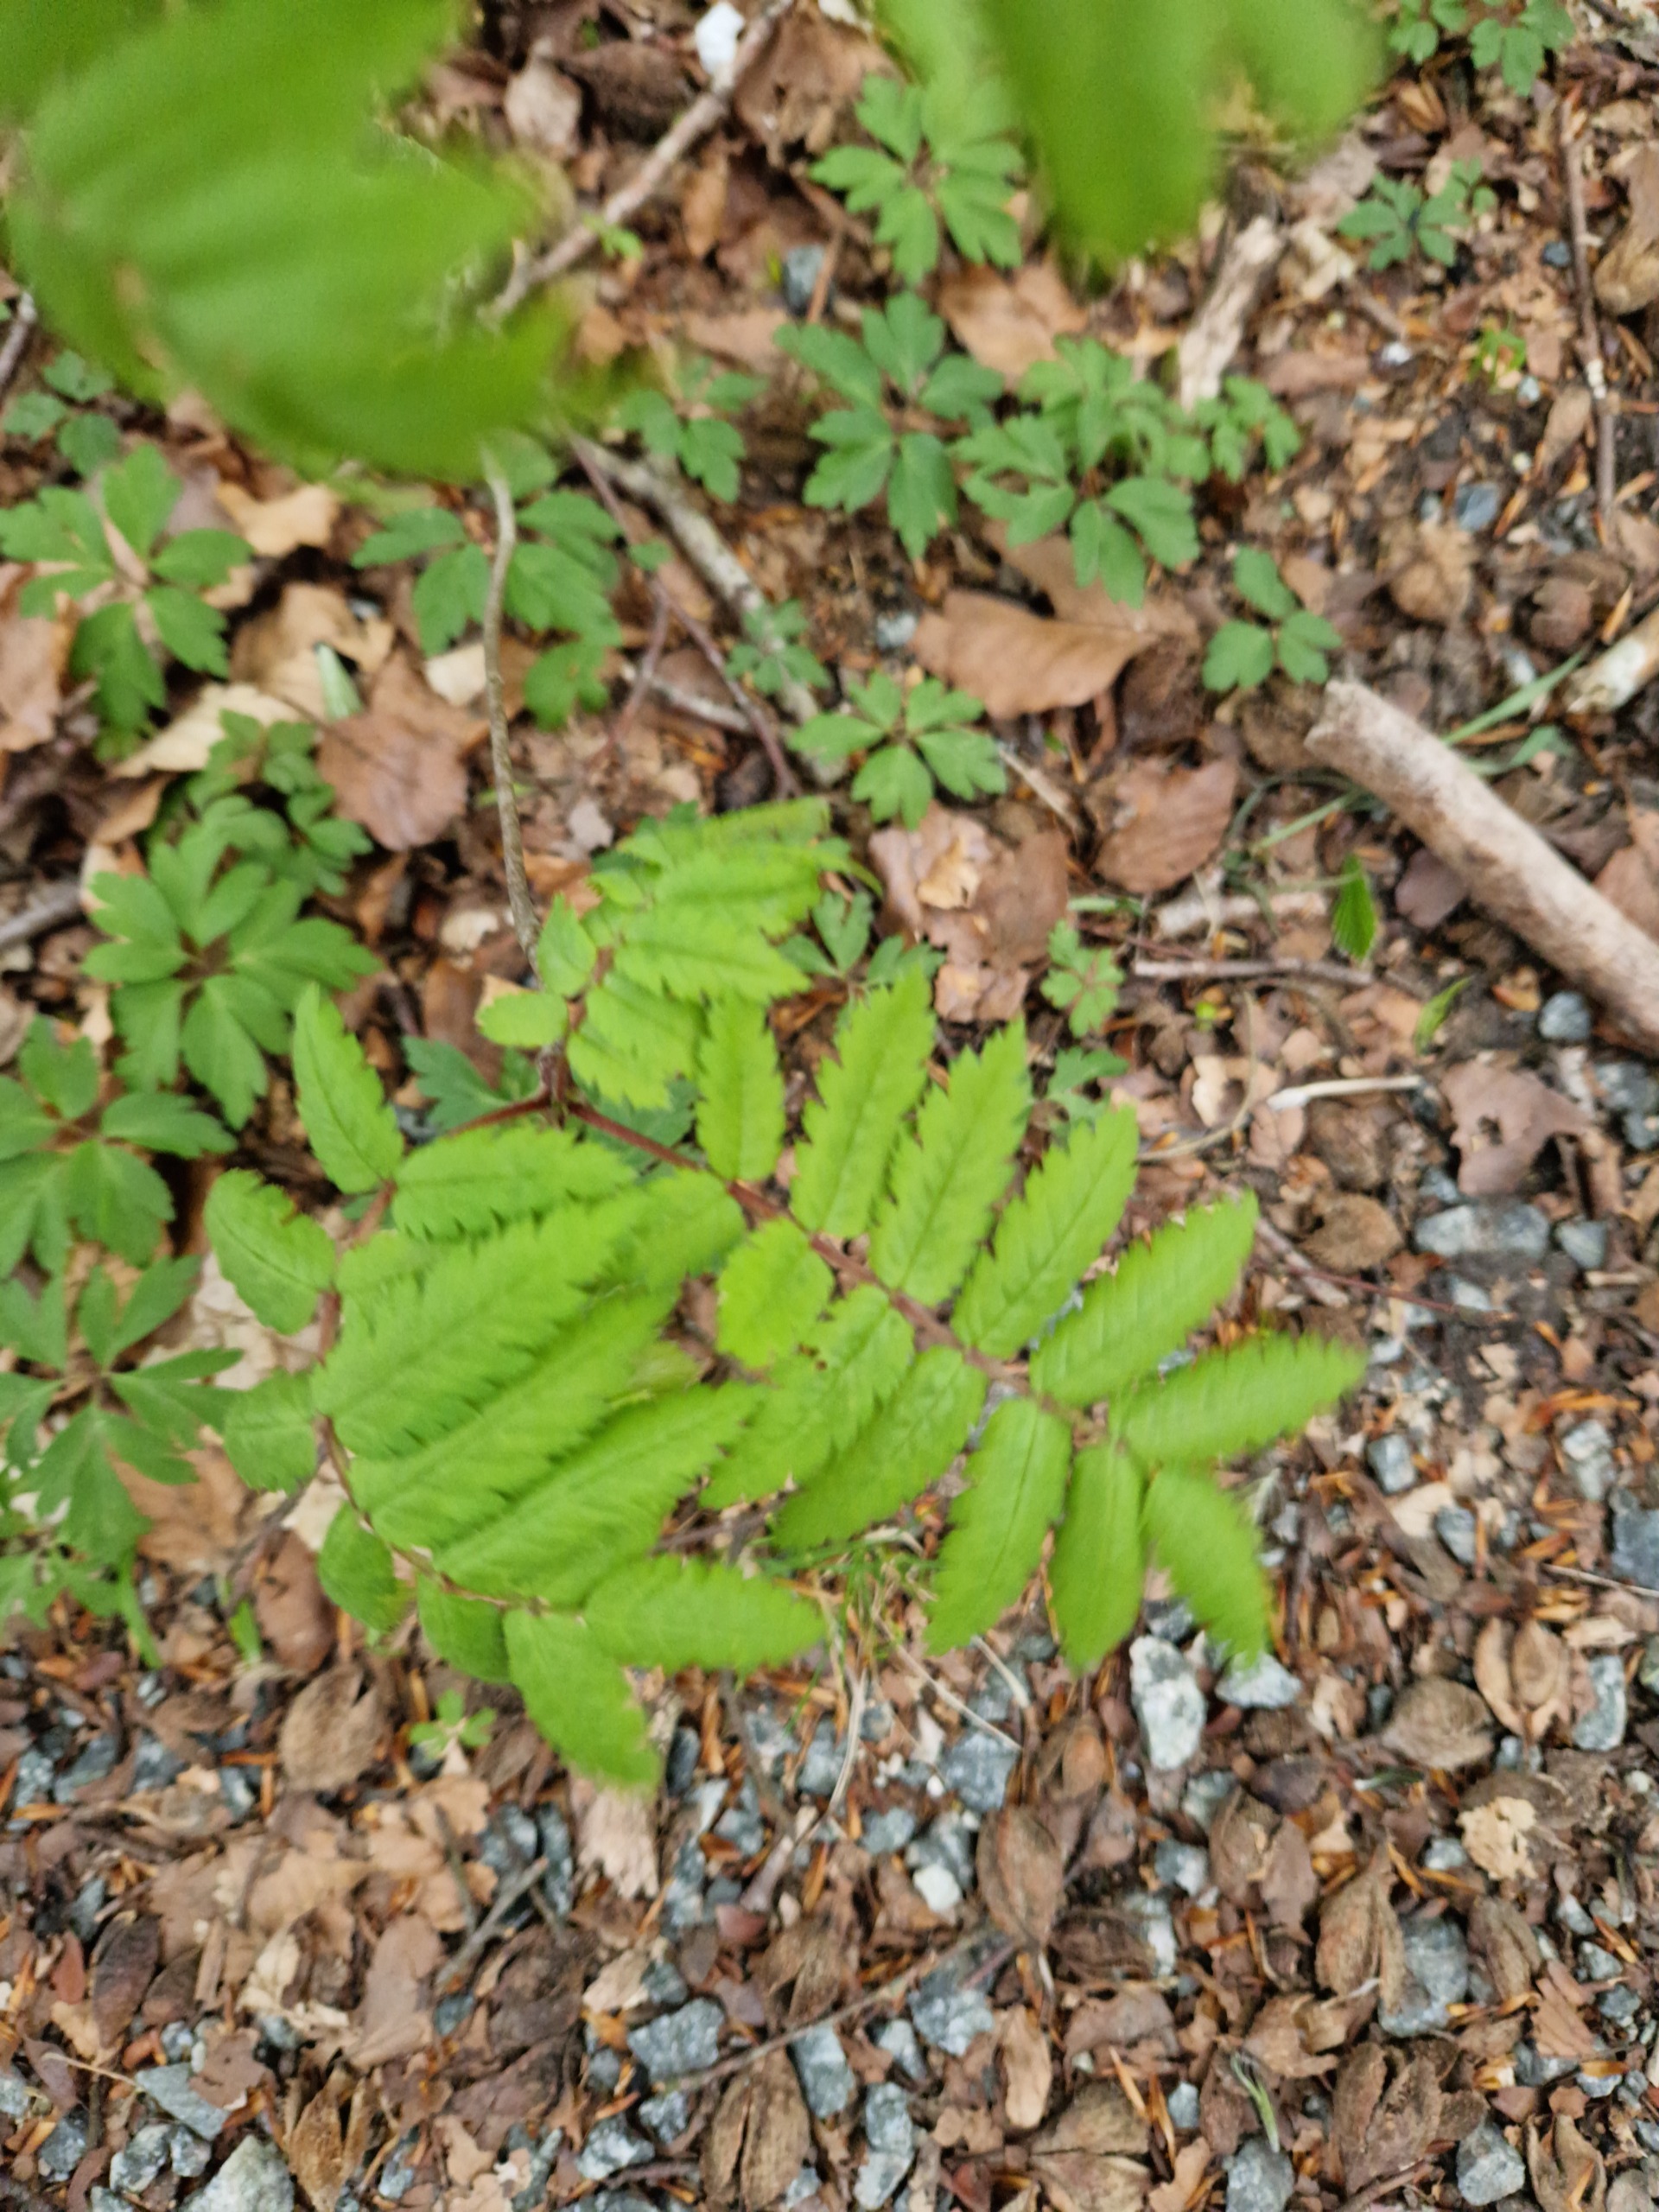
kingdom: Plantae
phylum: Tracheophyta
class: Magnoliopsida
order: Rosales
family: Rosaceae
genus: Sorbus
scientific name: Sorbus aucuparia
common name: Almindelig røn
